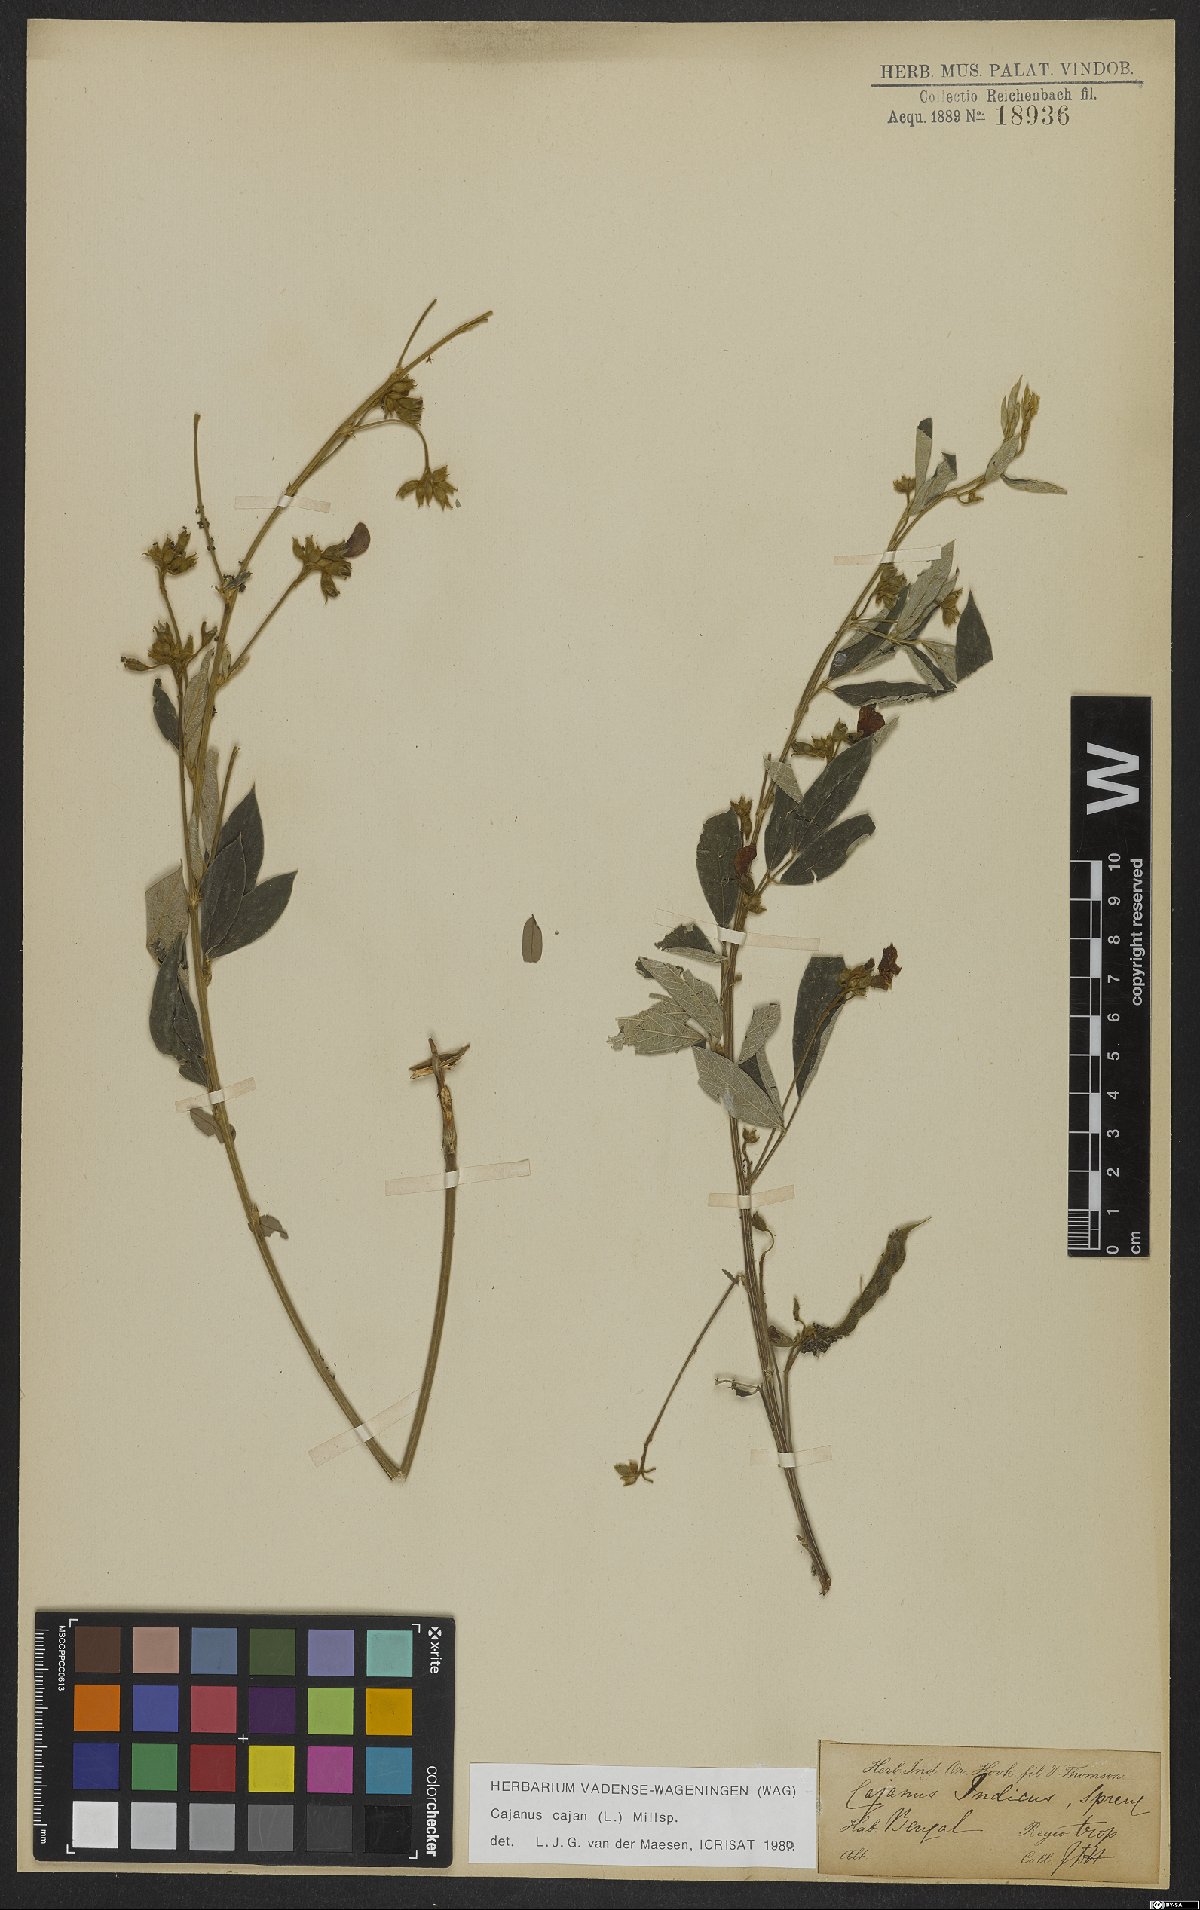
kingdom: Plantae
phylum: Tracheophyta
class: Magnoliopsida
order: Fabales
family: Fabaceae
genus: Cajanus
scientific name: Cajanus cajan
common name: Pigeonpea
